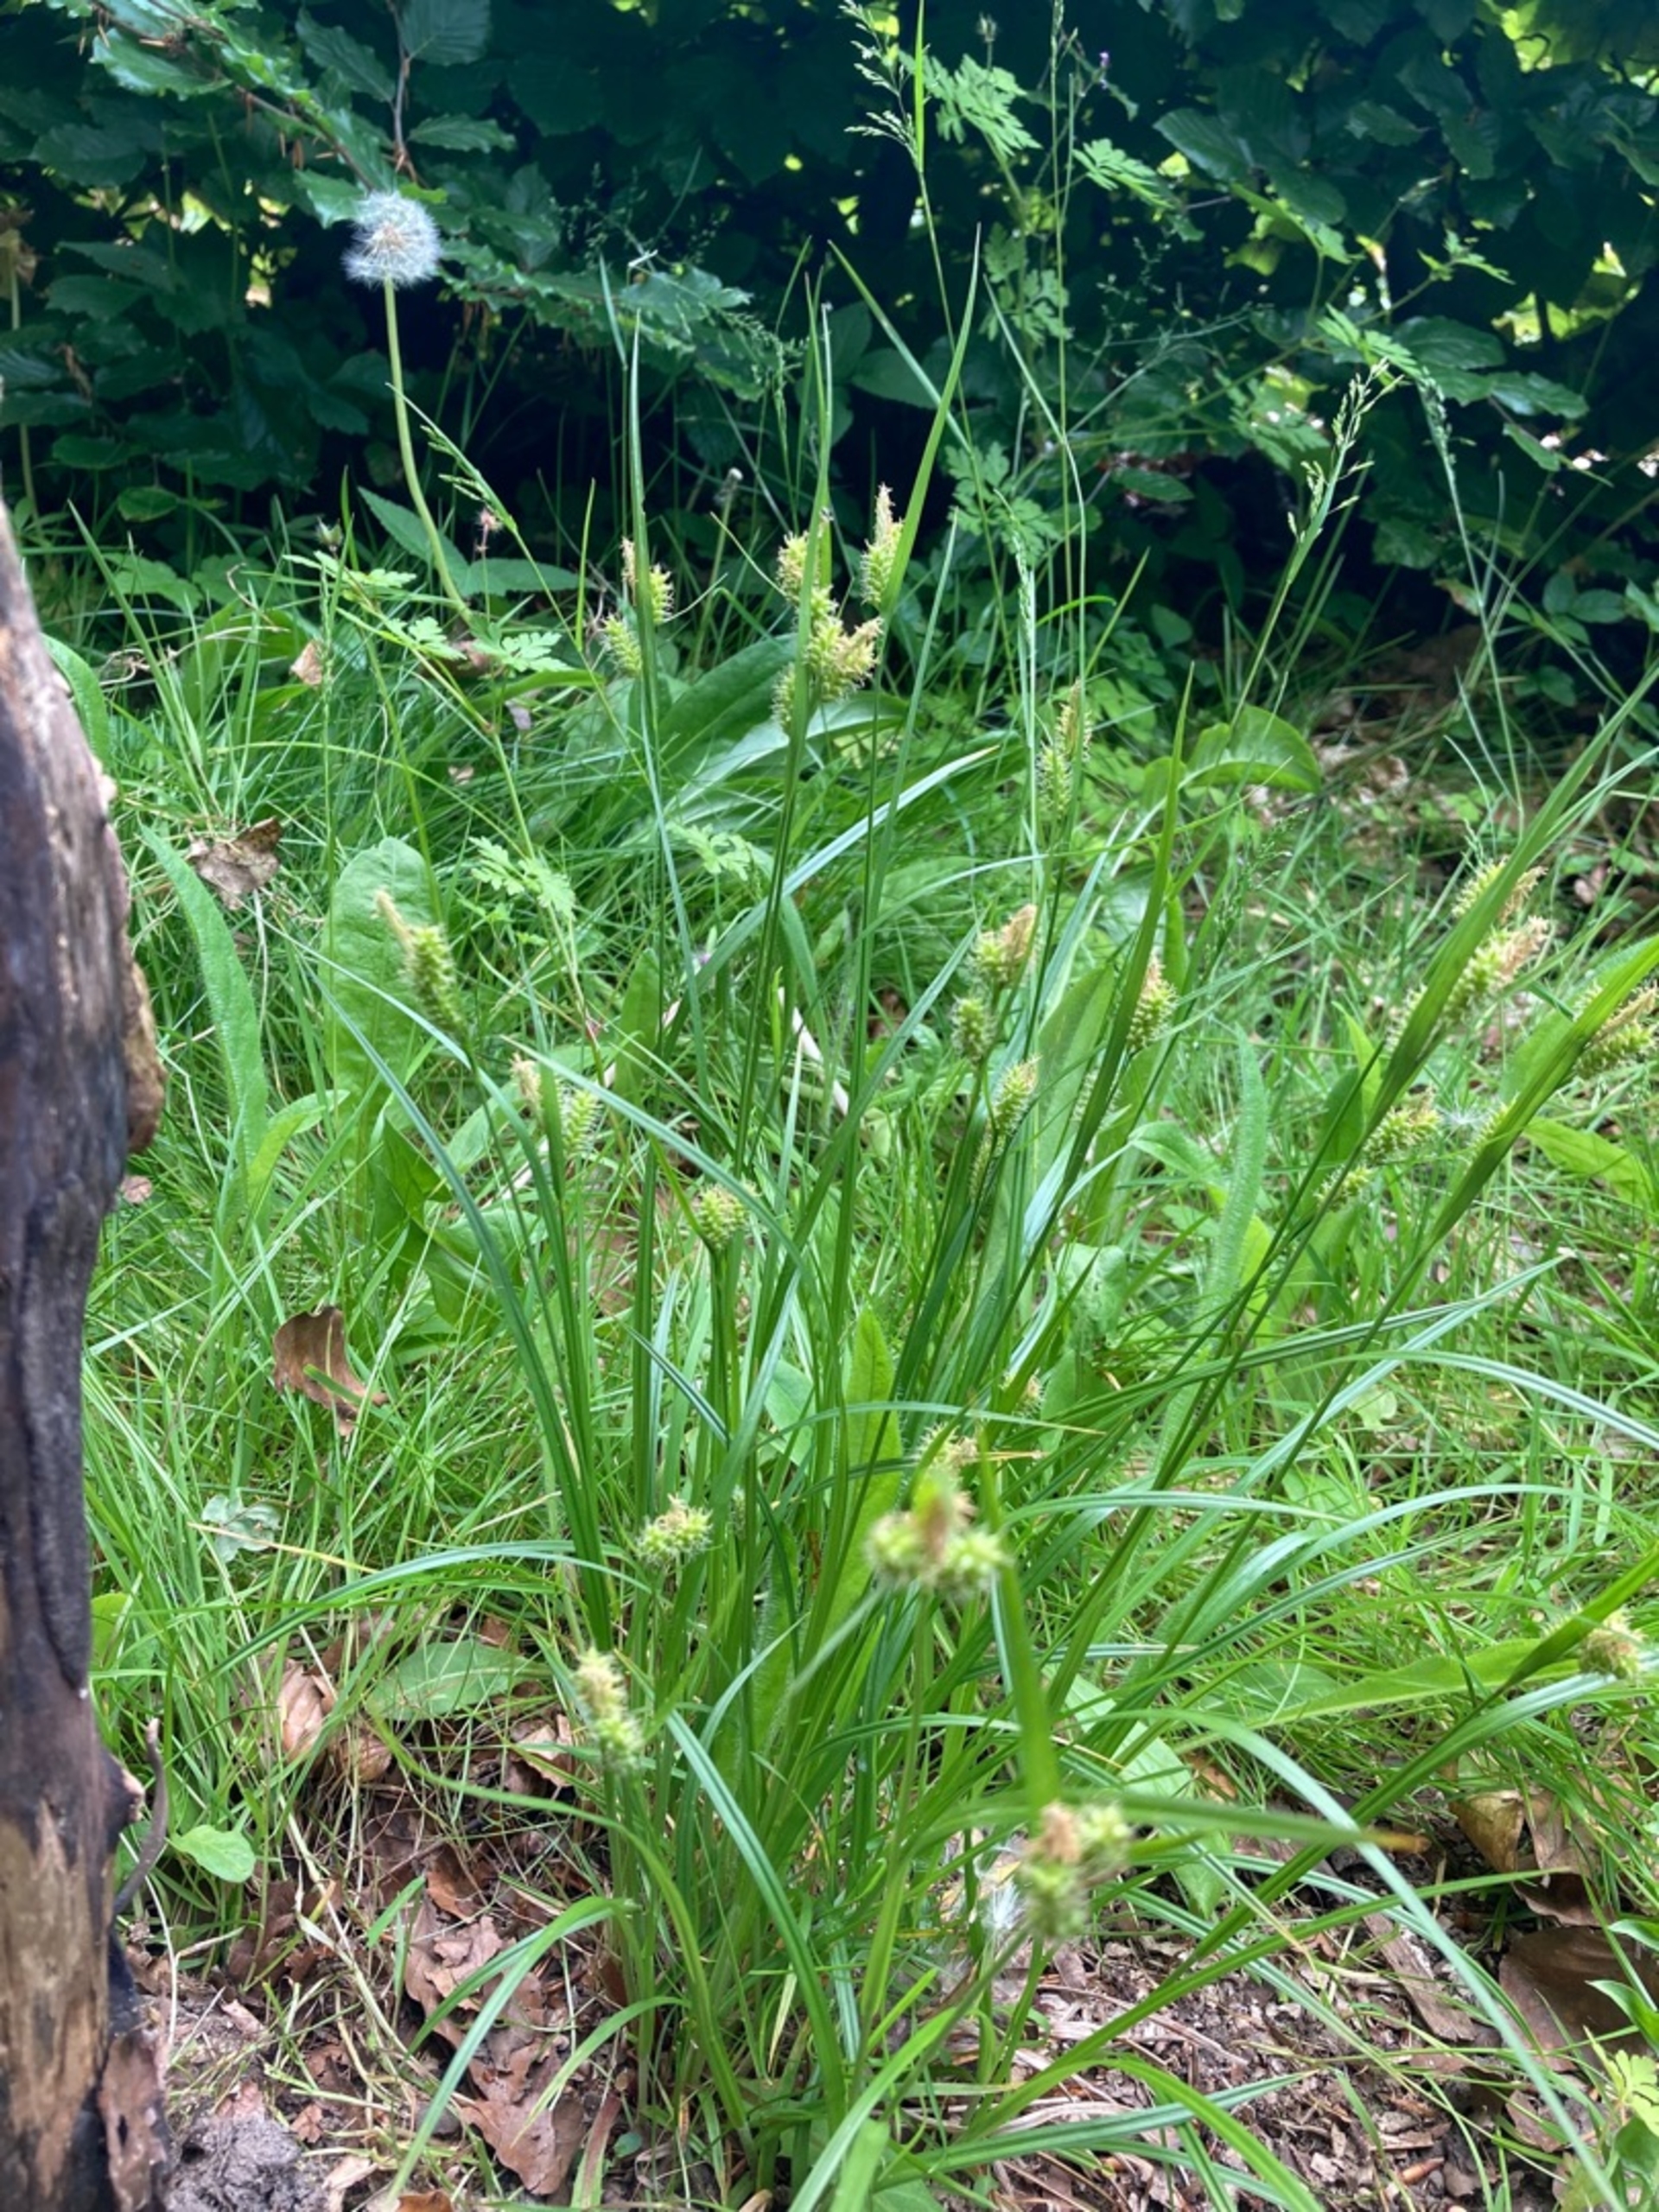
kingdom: Plantae
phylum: Tracheophyta
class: Liliopsida
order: Poales
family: Cyperaceae
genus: Carex
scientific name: Carex pallescens
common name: Bleg star
